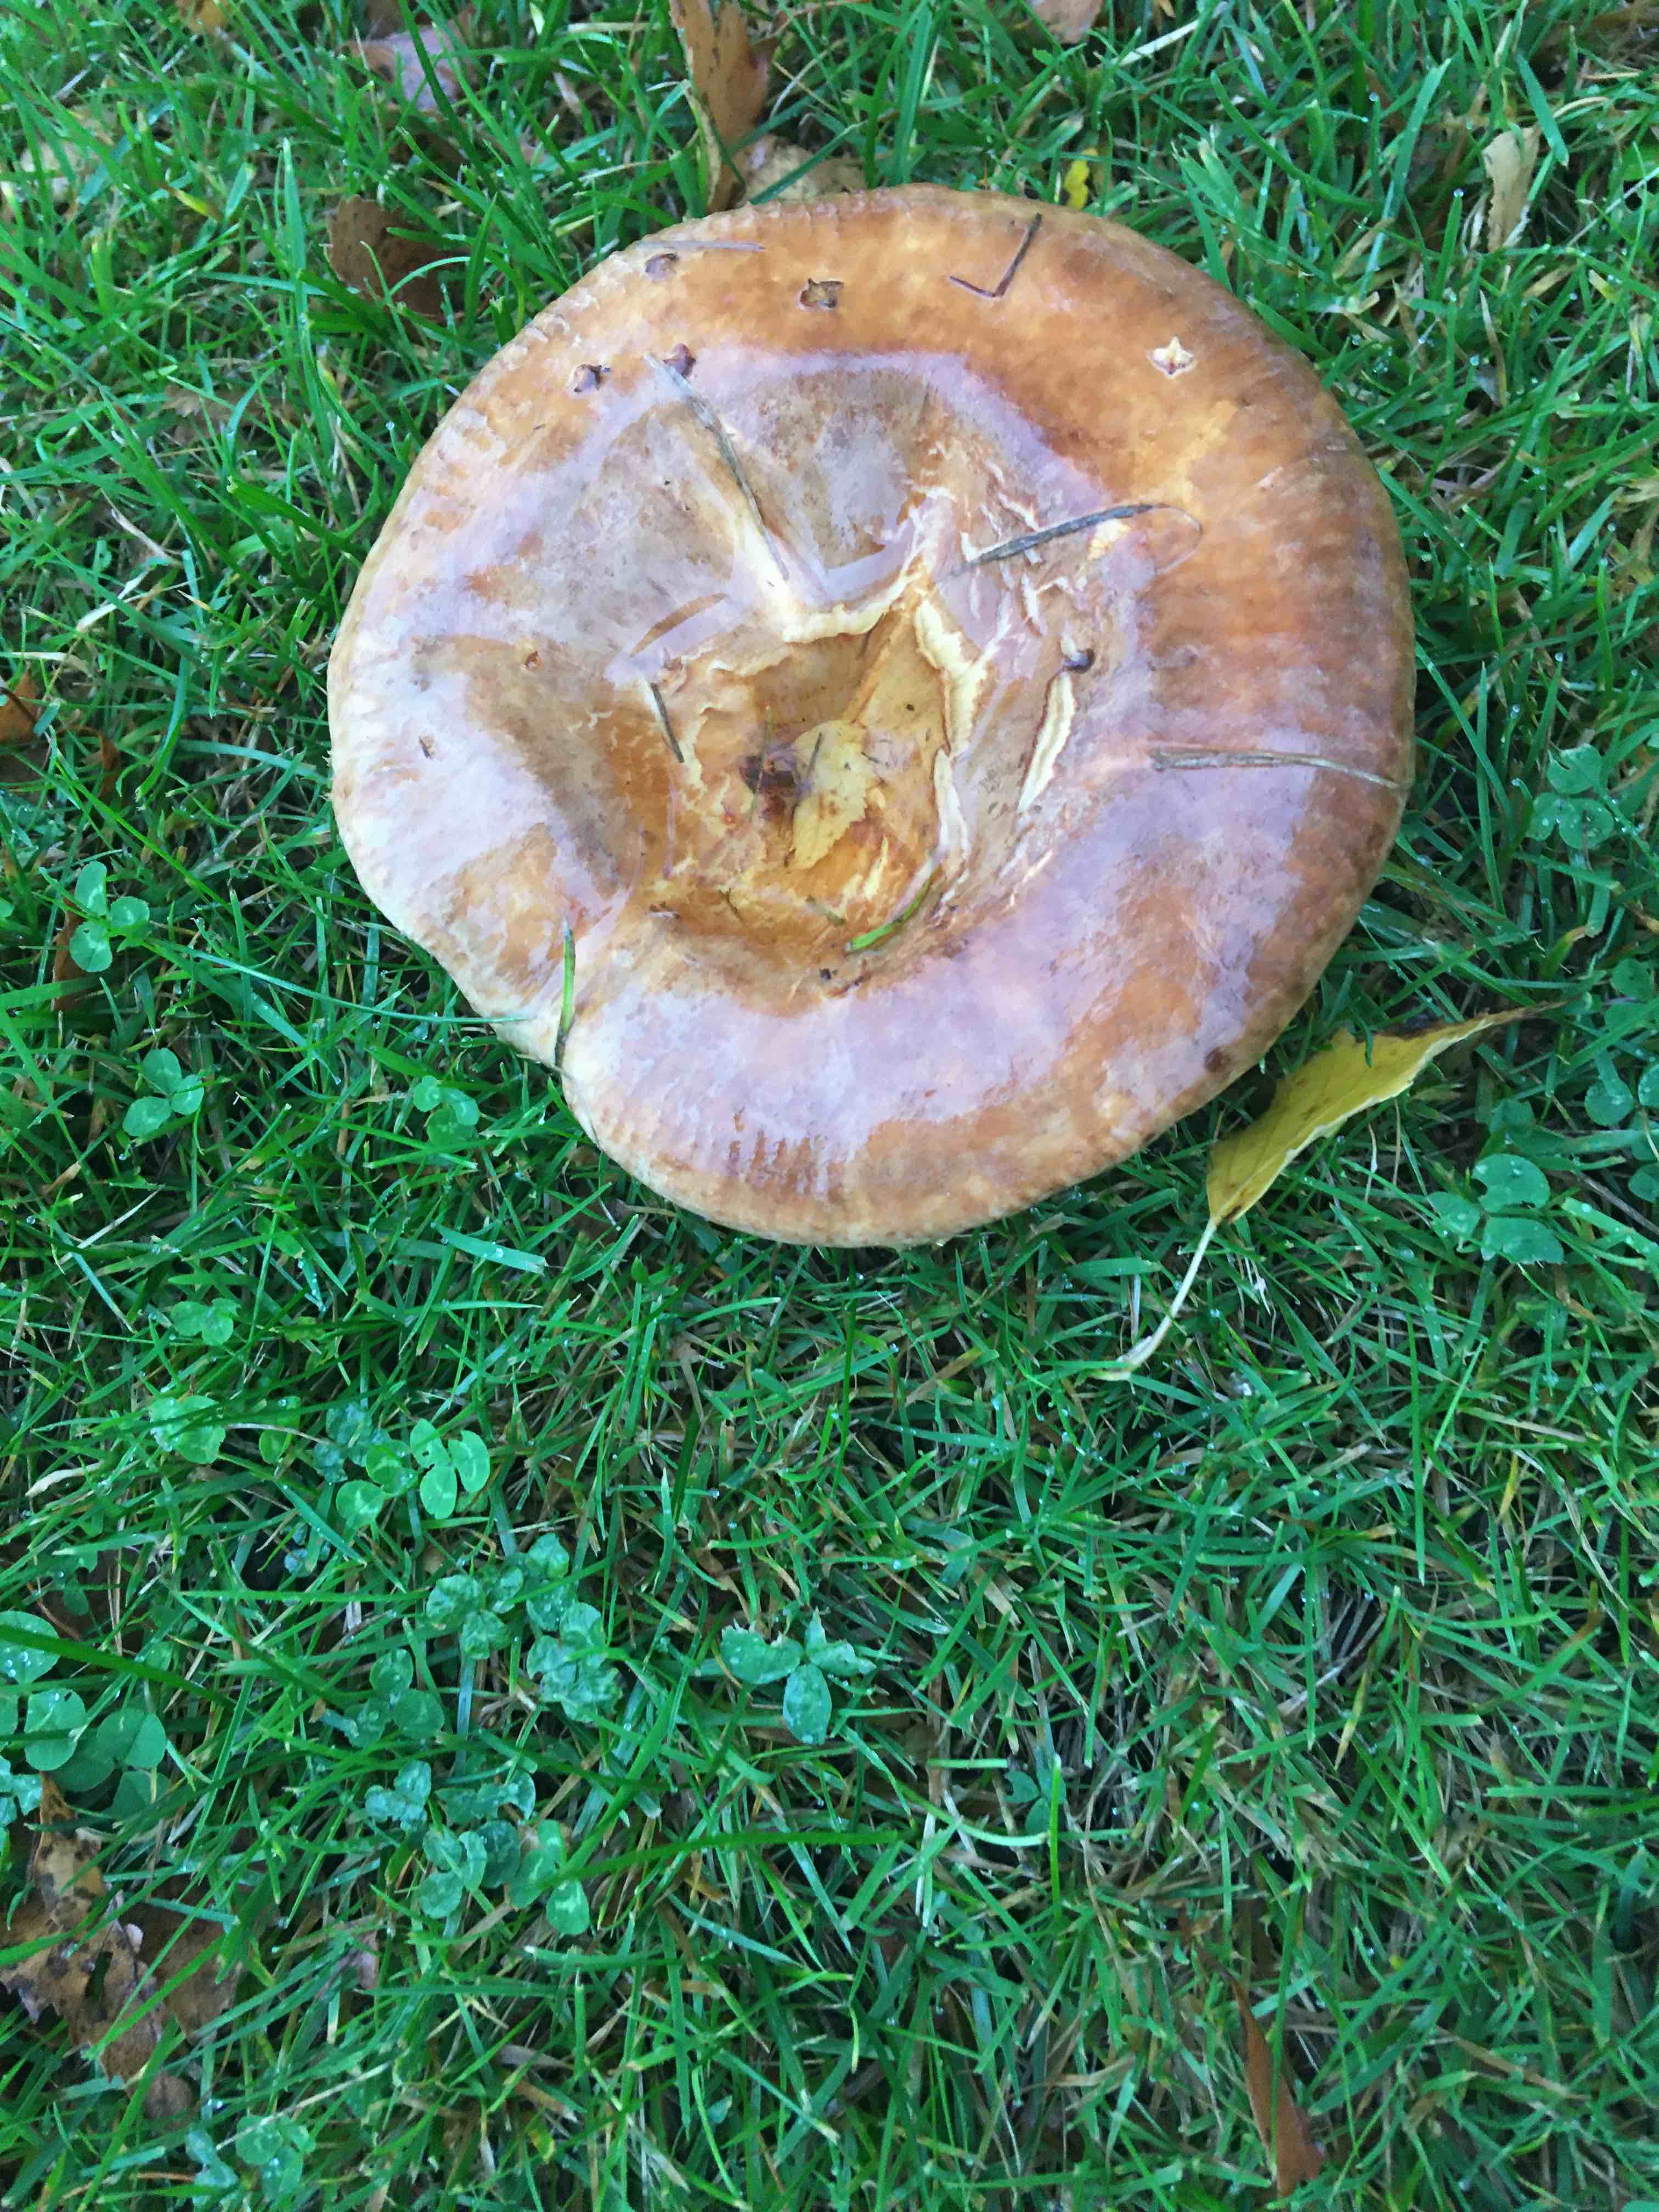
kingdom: Fungi
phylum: Basidiomycota
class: Agaricomycetes
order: Boletales
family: Paxillaceae
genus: Paxillus
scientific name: Paxillus
